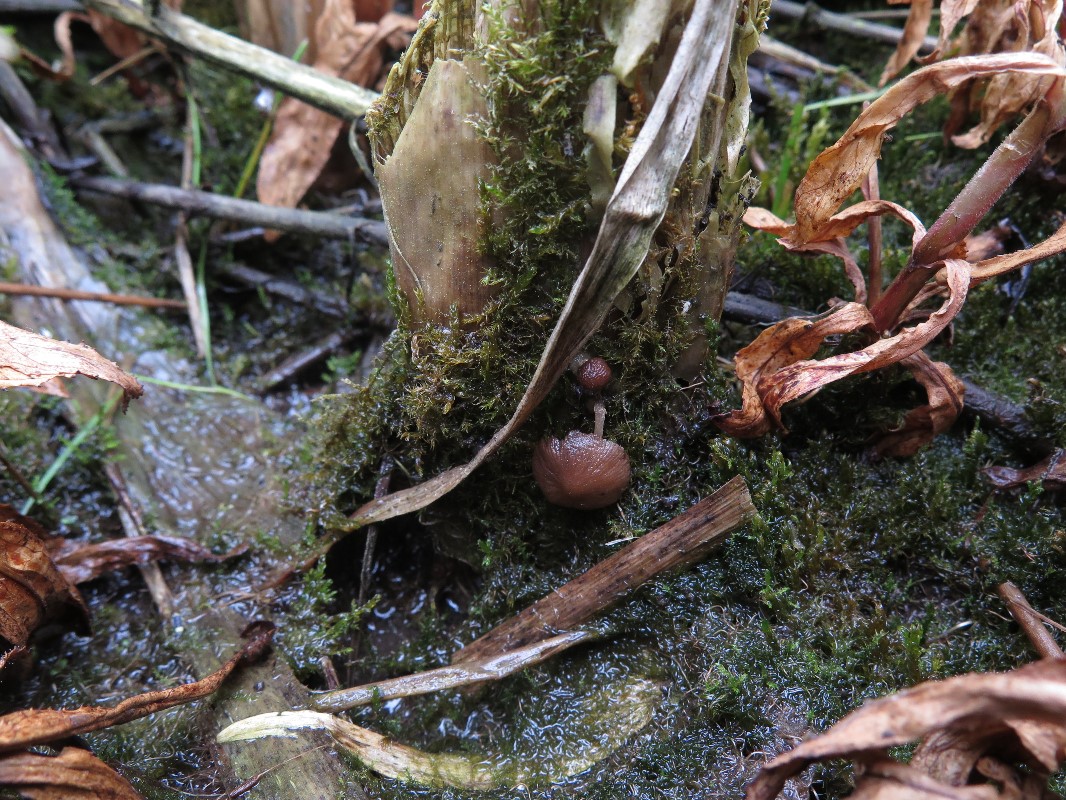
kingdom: Fungi
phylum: Basidiomycota
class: Agaricomycetes
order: Agaricales
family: Psathyrellaceae
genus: Psathyrella
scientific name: Psathyrella
